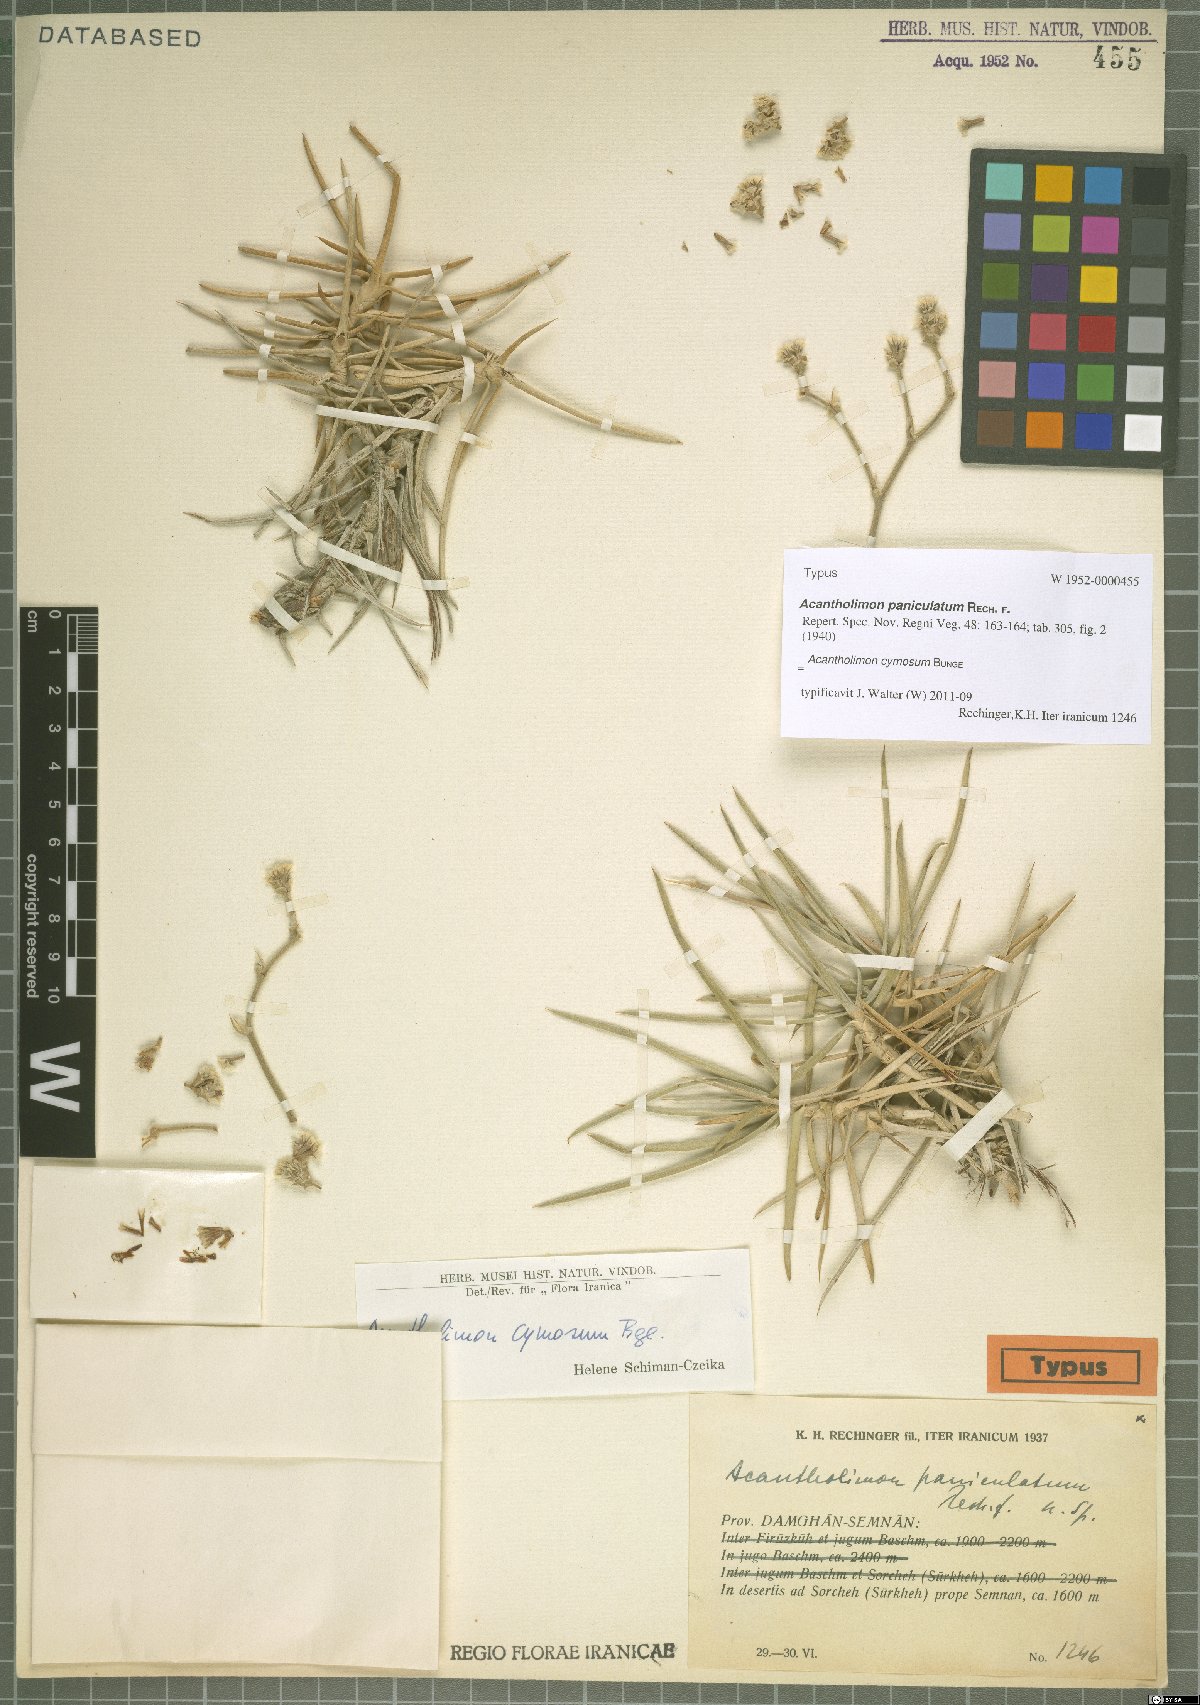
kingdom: Plantae
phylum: Tracheophyta
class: Magnoliopsida
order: Caryophyllales
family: Plumbaginaceae
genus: Acantholimon
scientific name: Acantholimon cymosum
